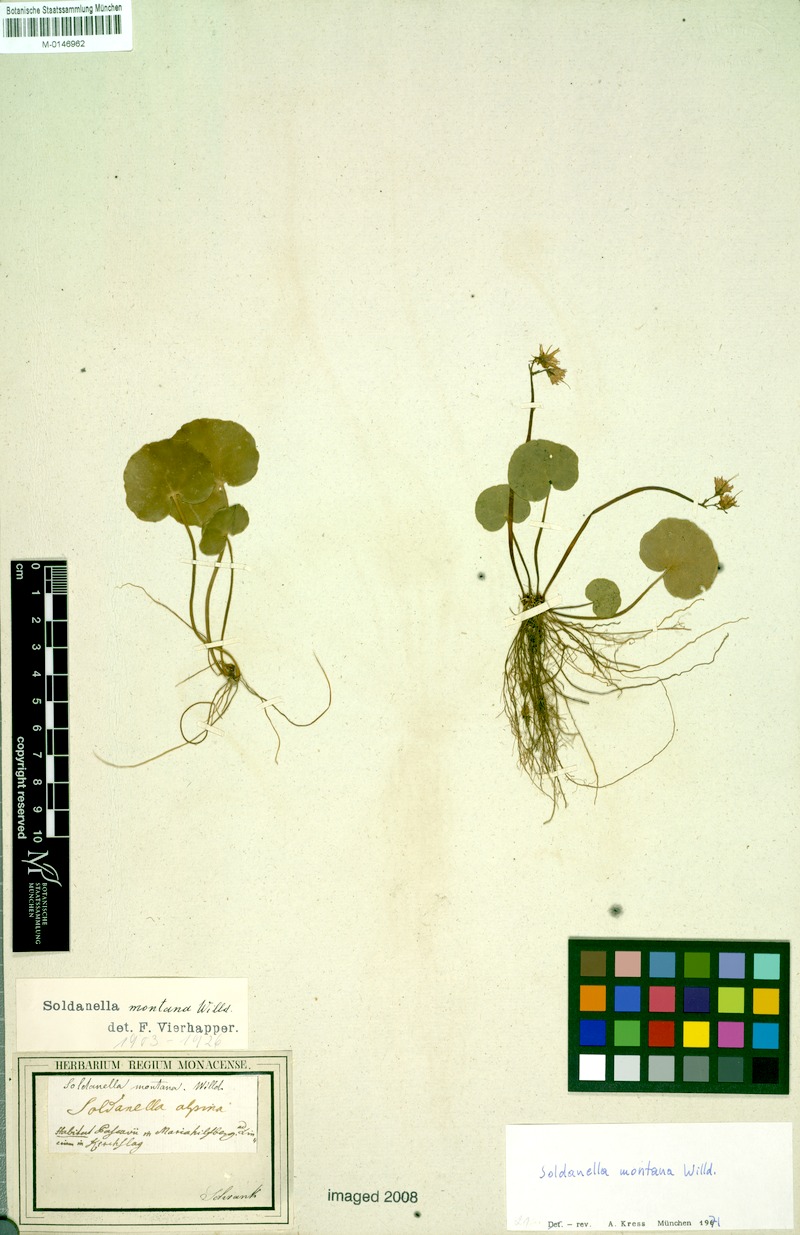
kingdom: Plantae
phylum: Tracheophyta
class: Magnoliopsida
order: Ericales
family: Primulaceae
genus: Soldanella
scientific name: Soldanella montana
